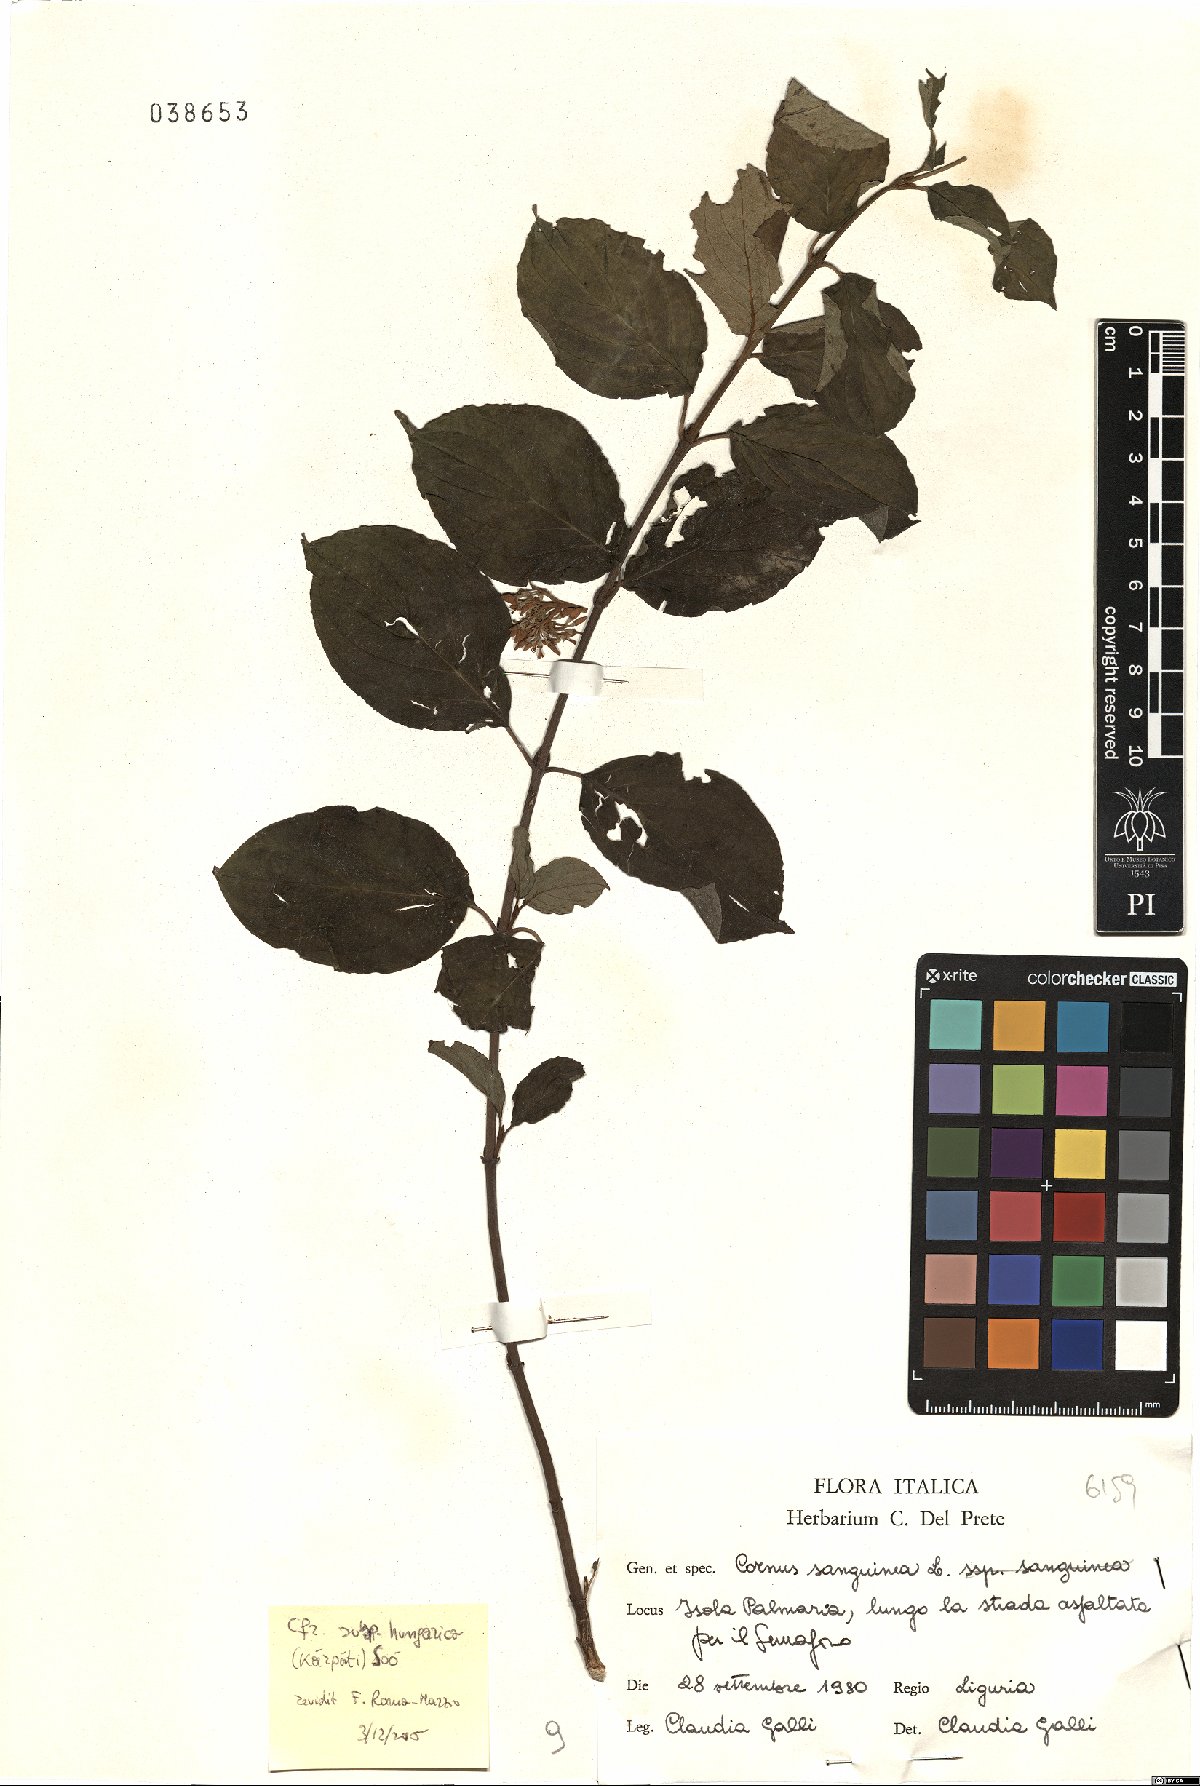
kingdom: Plantae
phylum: Tracheophyta
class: Magnoliopsida
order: Cornales
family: Cornaceae
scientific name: Cornaceae
